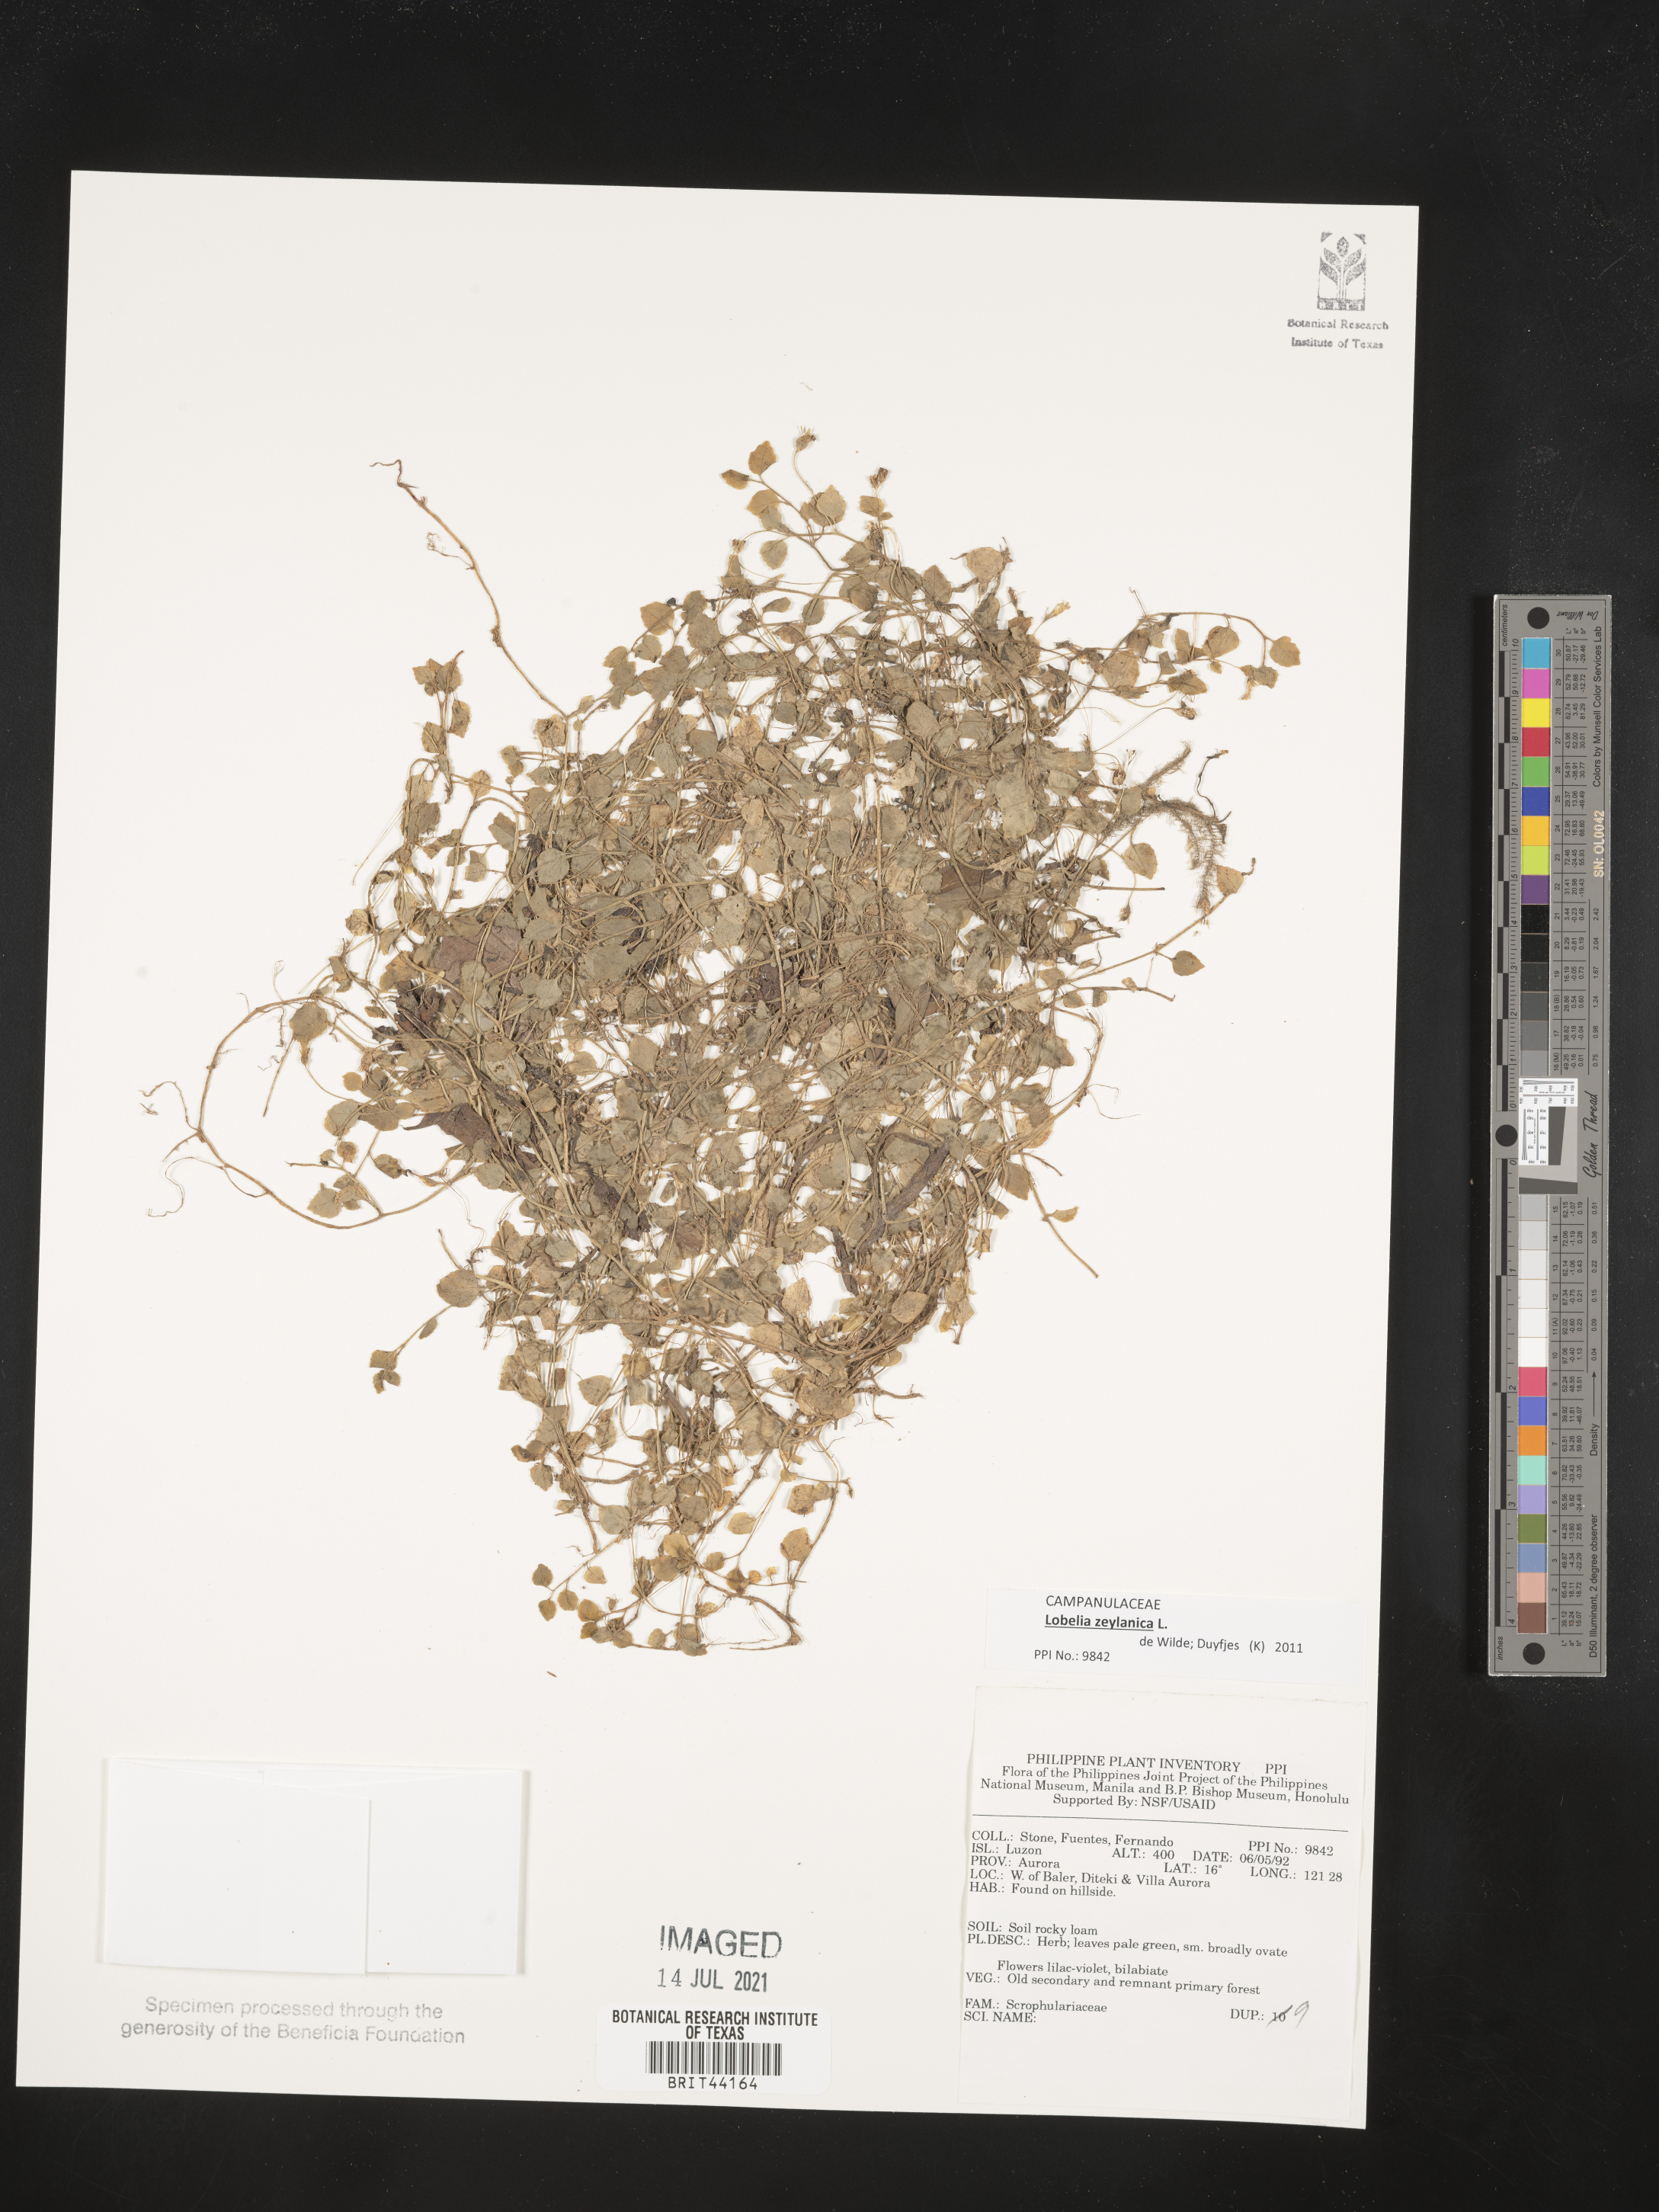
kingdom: Plantae
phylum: Tracheophyta
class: Magnoliopsida
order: Lamiales
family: Scrophulariaceae
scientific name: Scrophulariaceae
